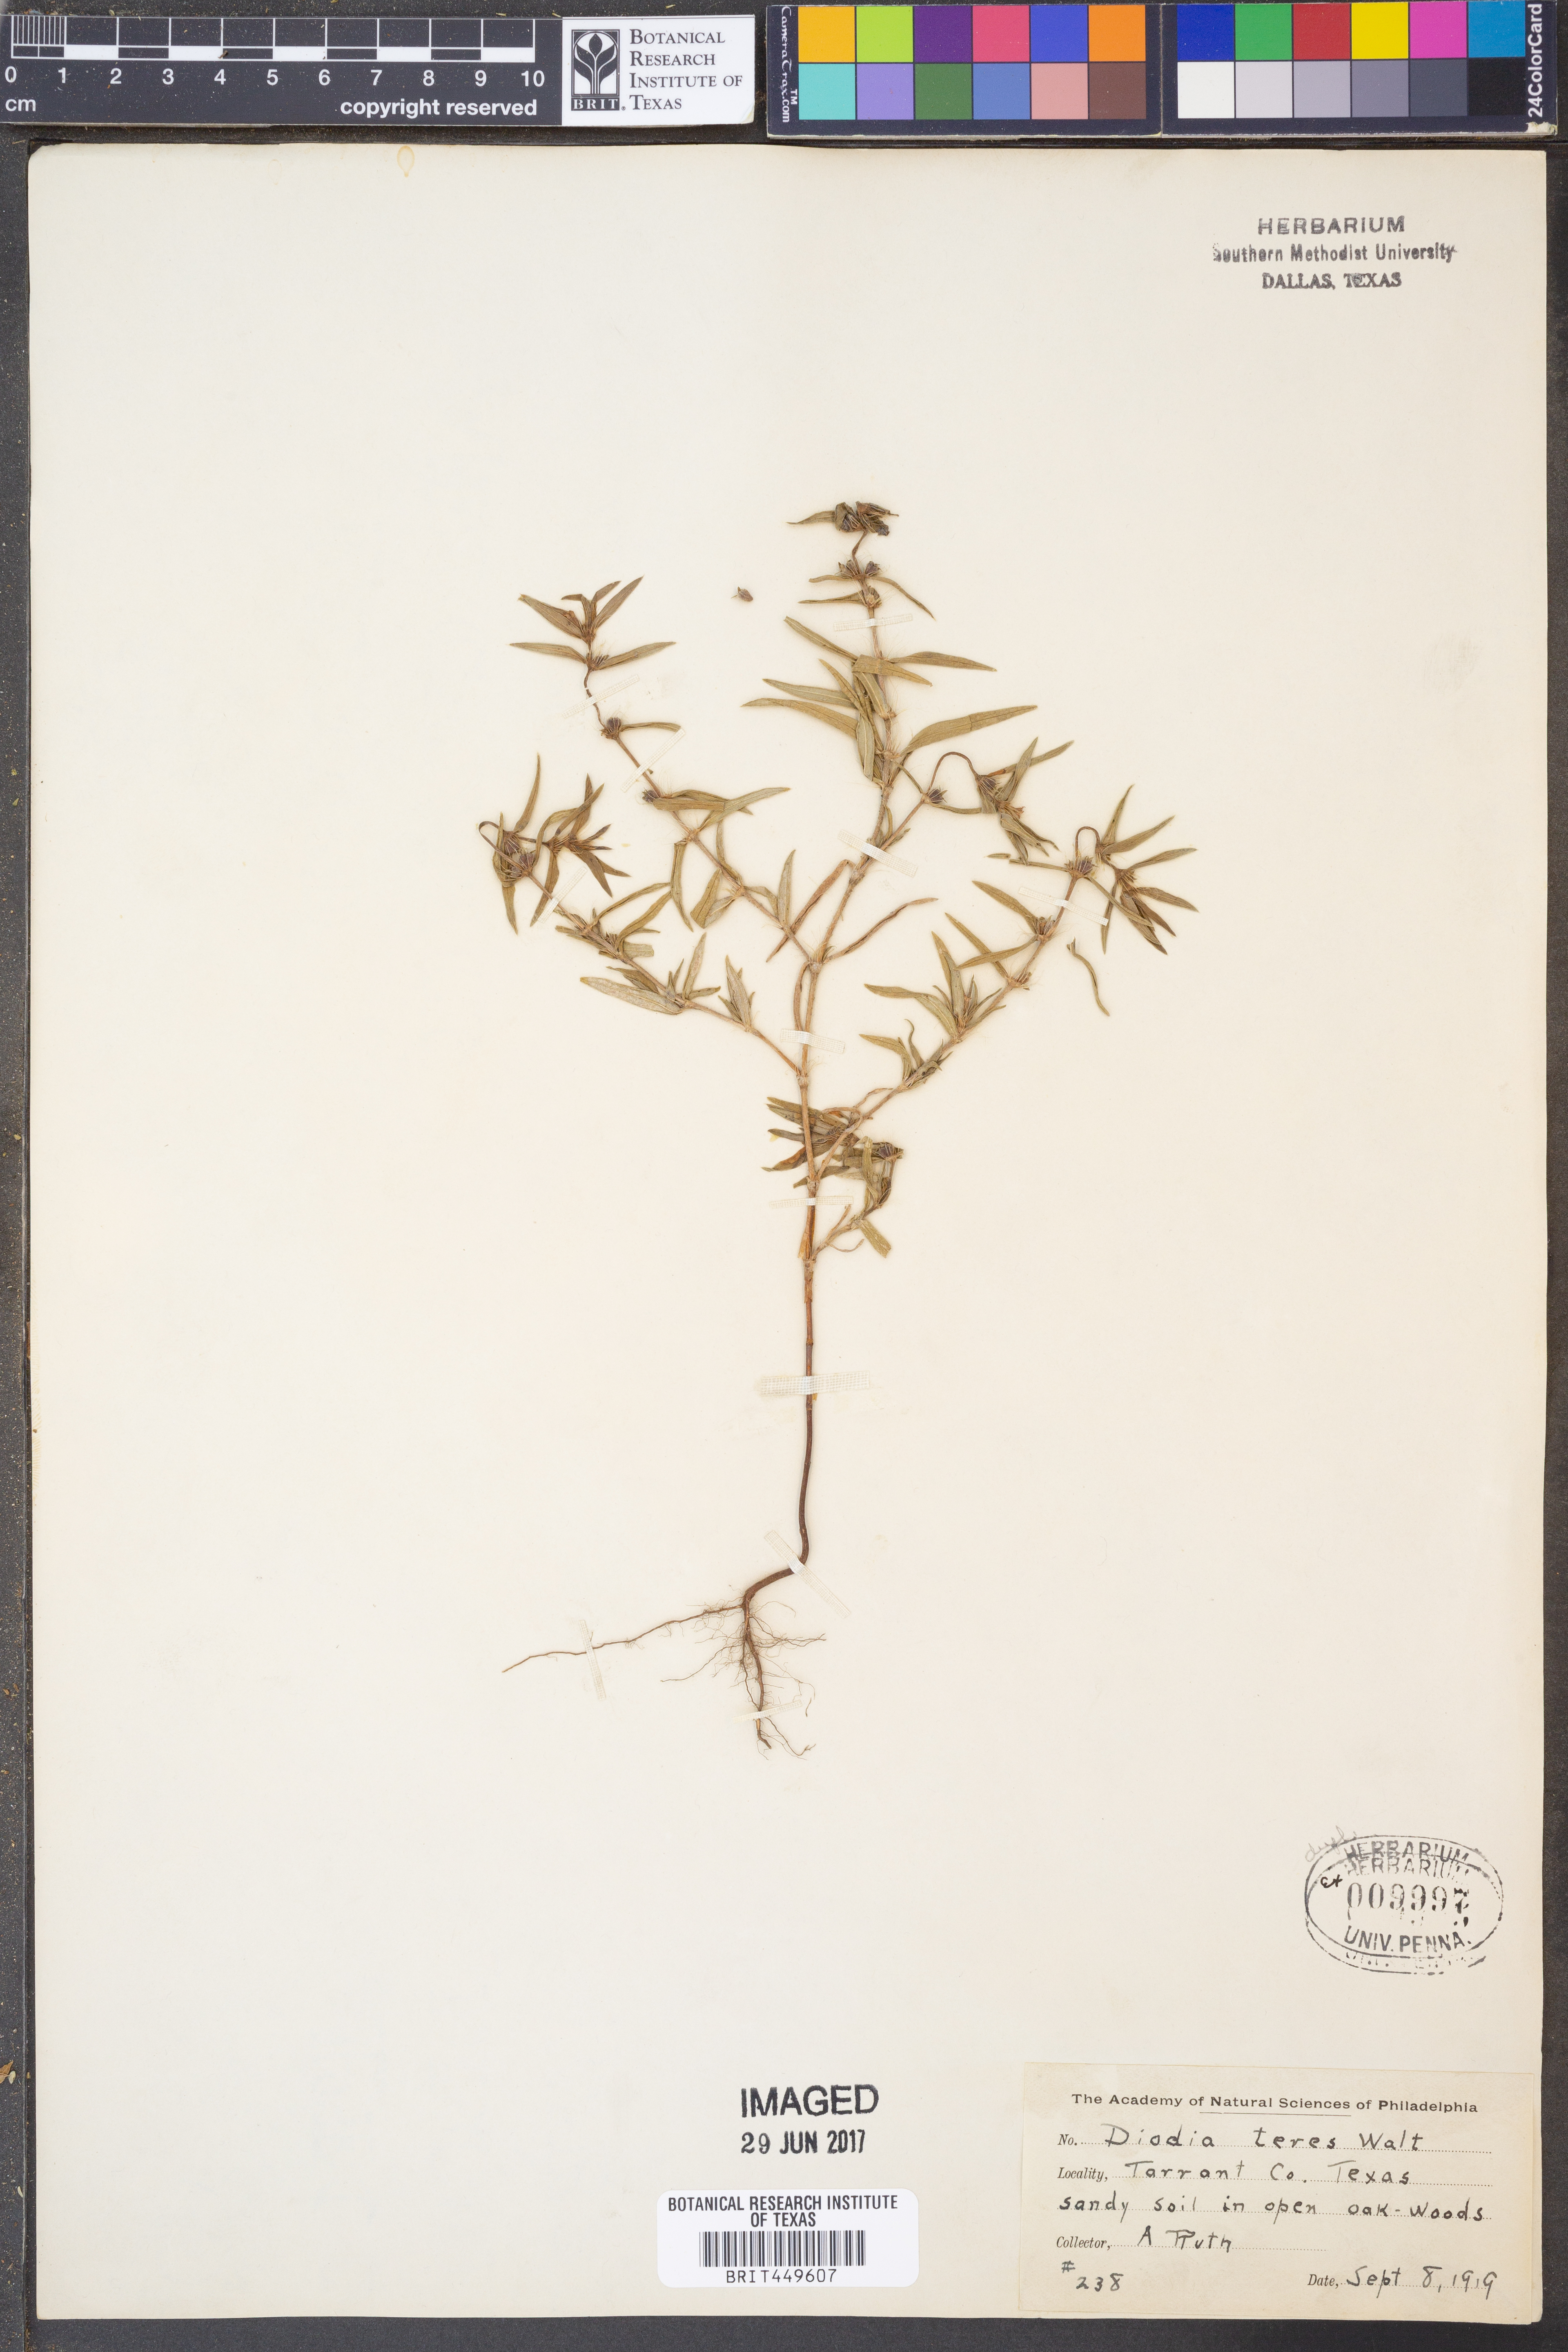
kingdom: Plantae
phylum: Tracheophyta
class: Magnoliopsida
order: Gentianales
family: Rubiaceae
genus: Hexasepalum
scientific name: Hexasepalum teres
